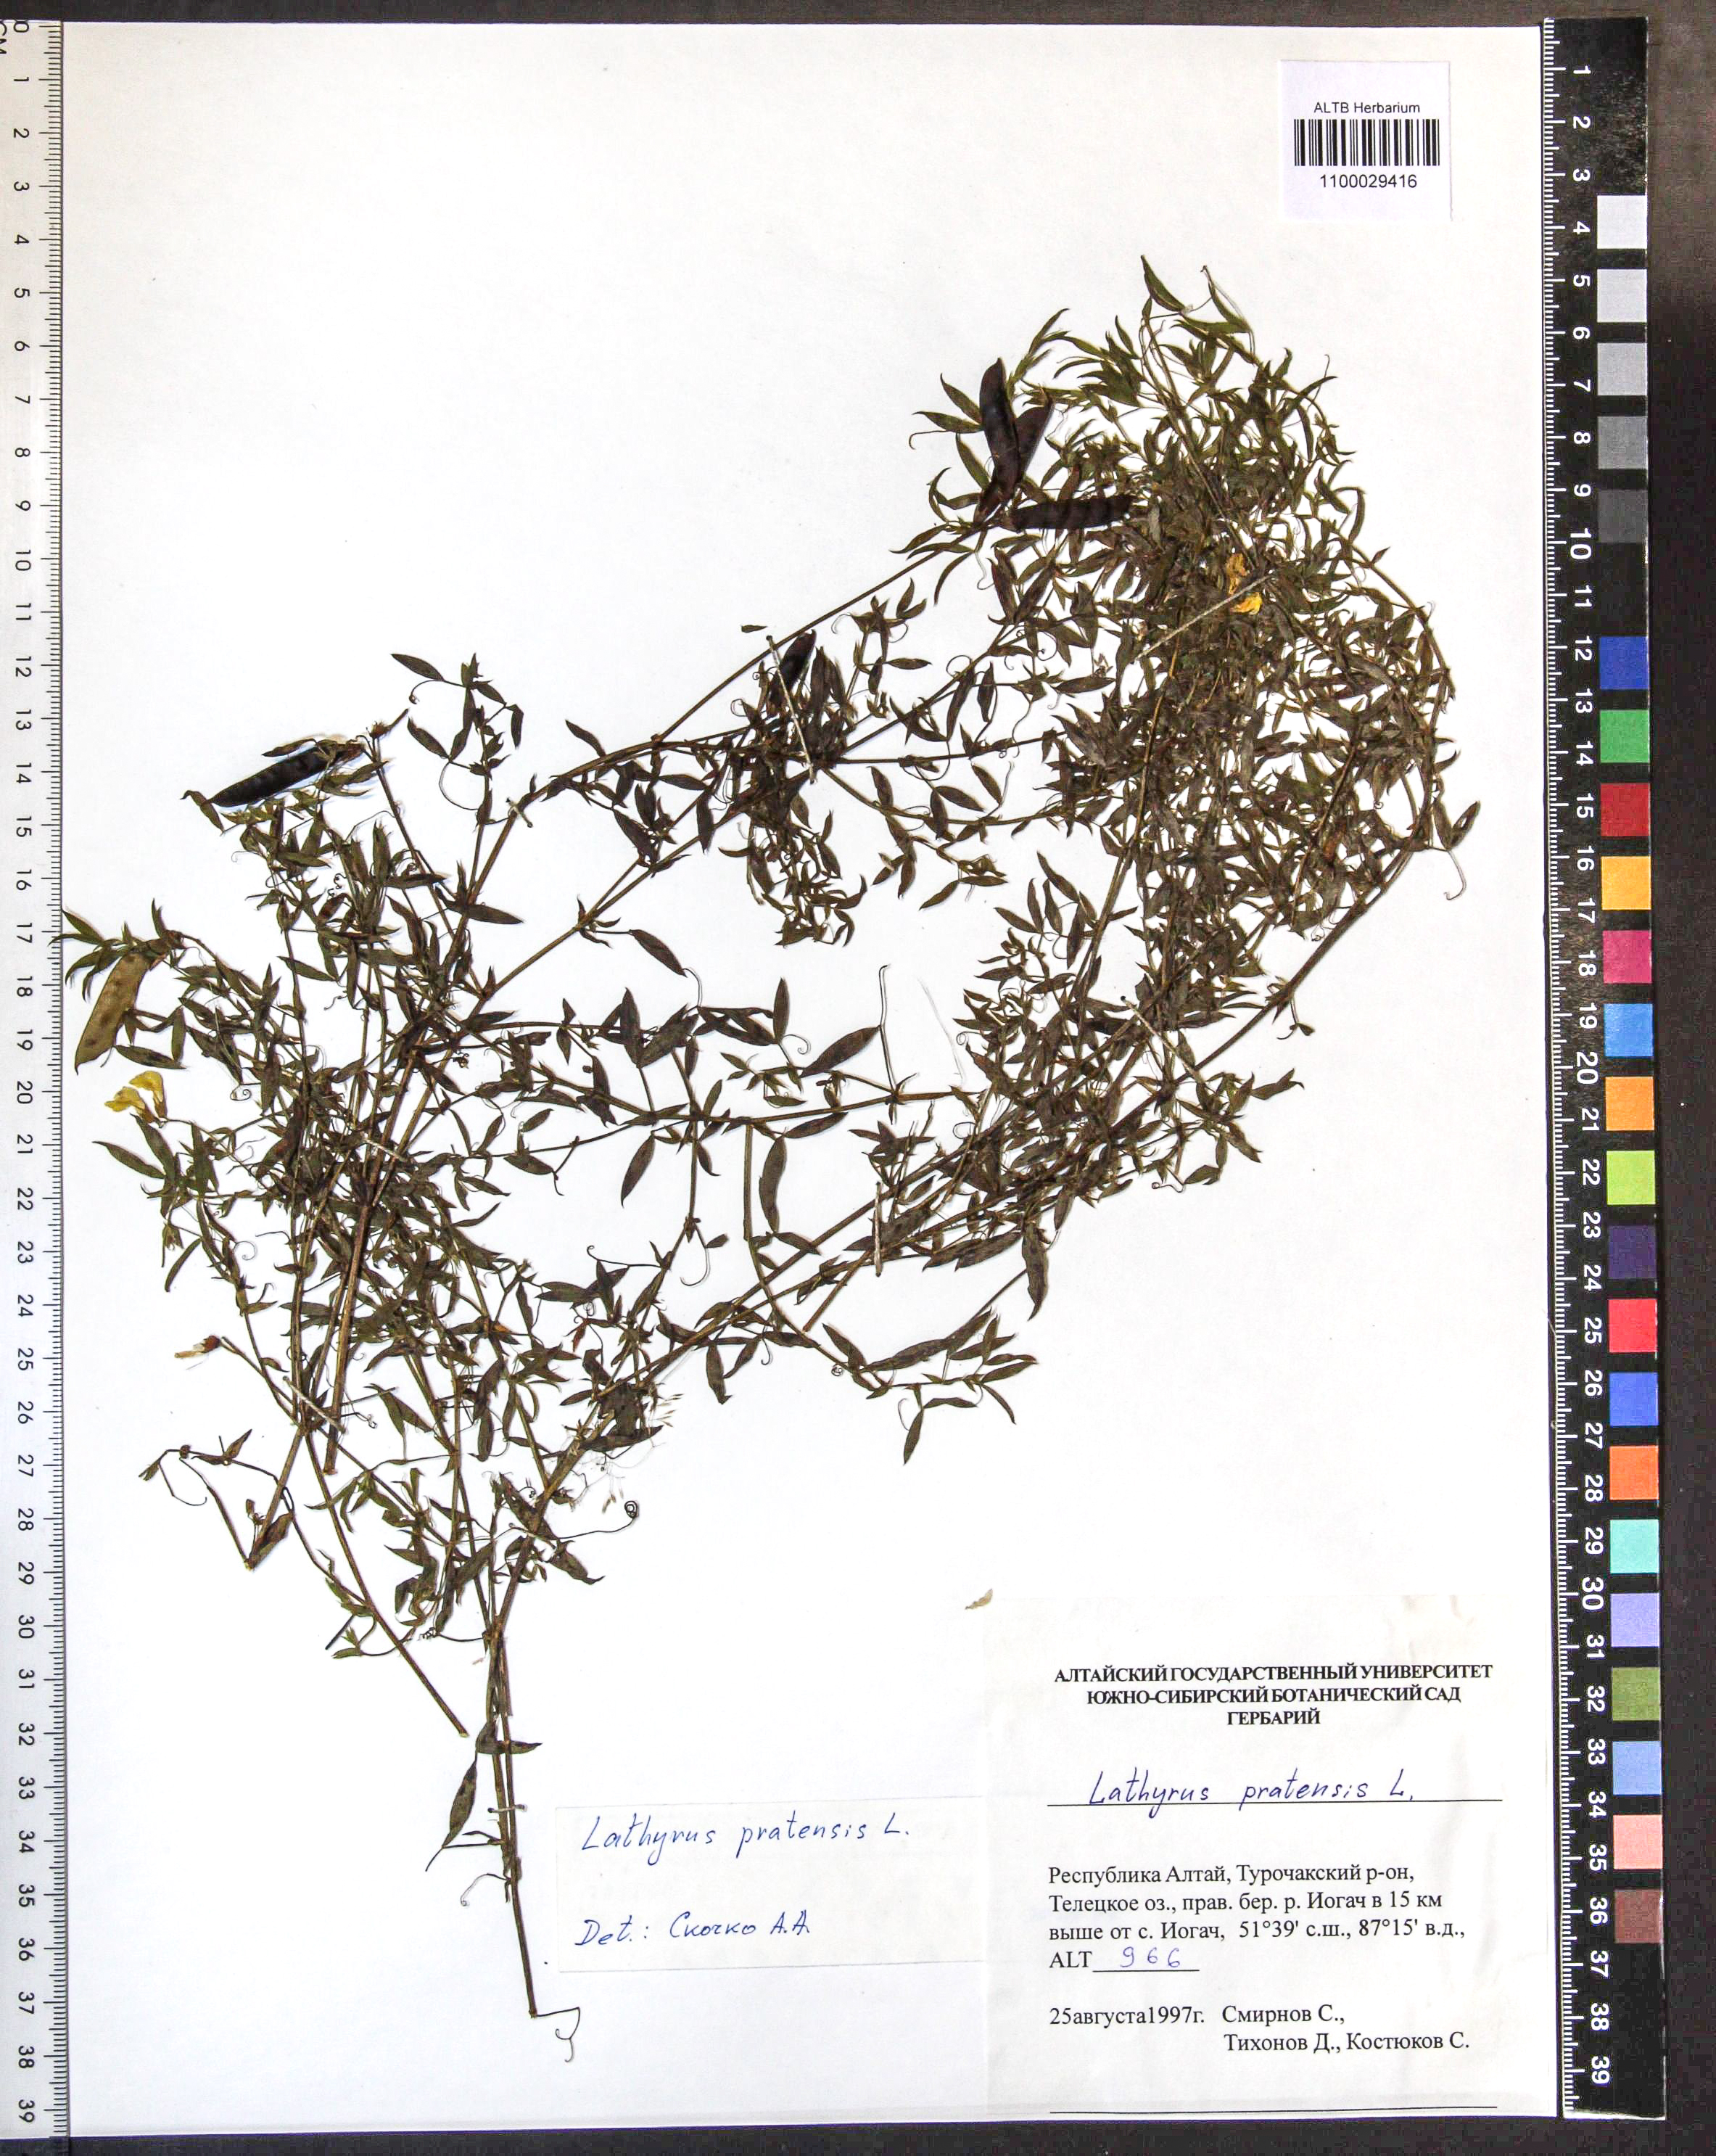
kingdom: Plantae
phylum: Tracheophyta
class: Magnoliopsida
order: Fabales
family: Fabaceae
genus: Lathyrus
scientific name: Lathyrus pratensis
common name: Meadow vetchling
